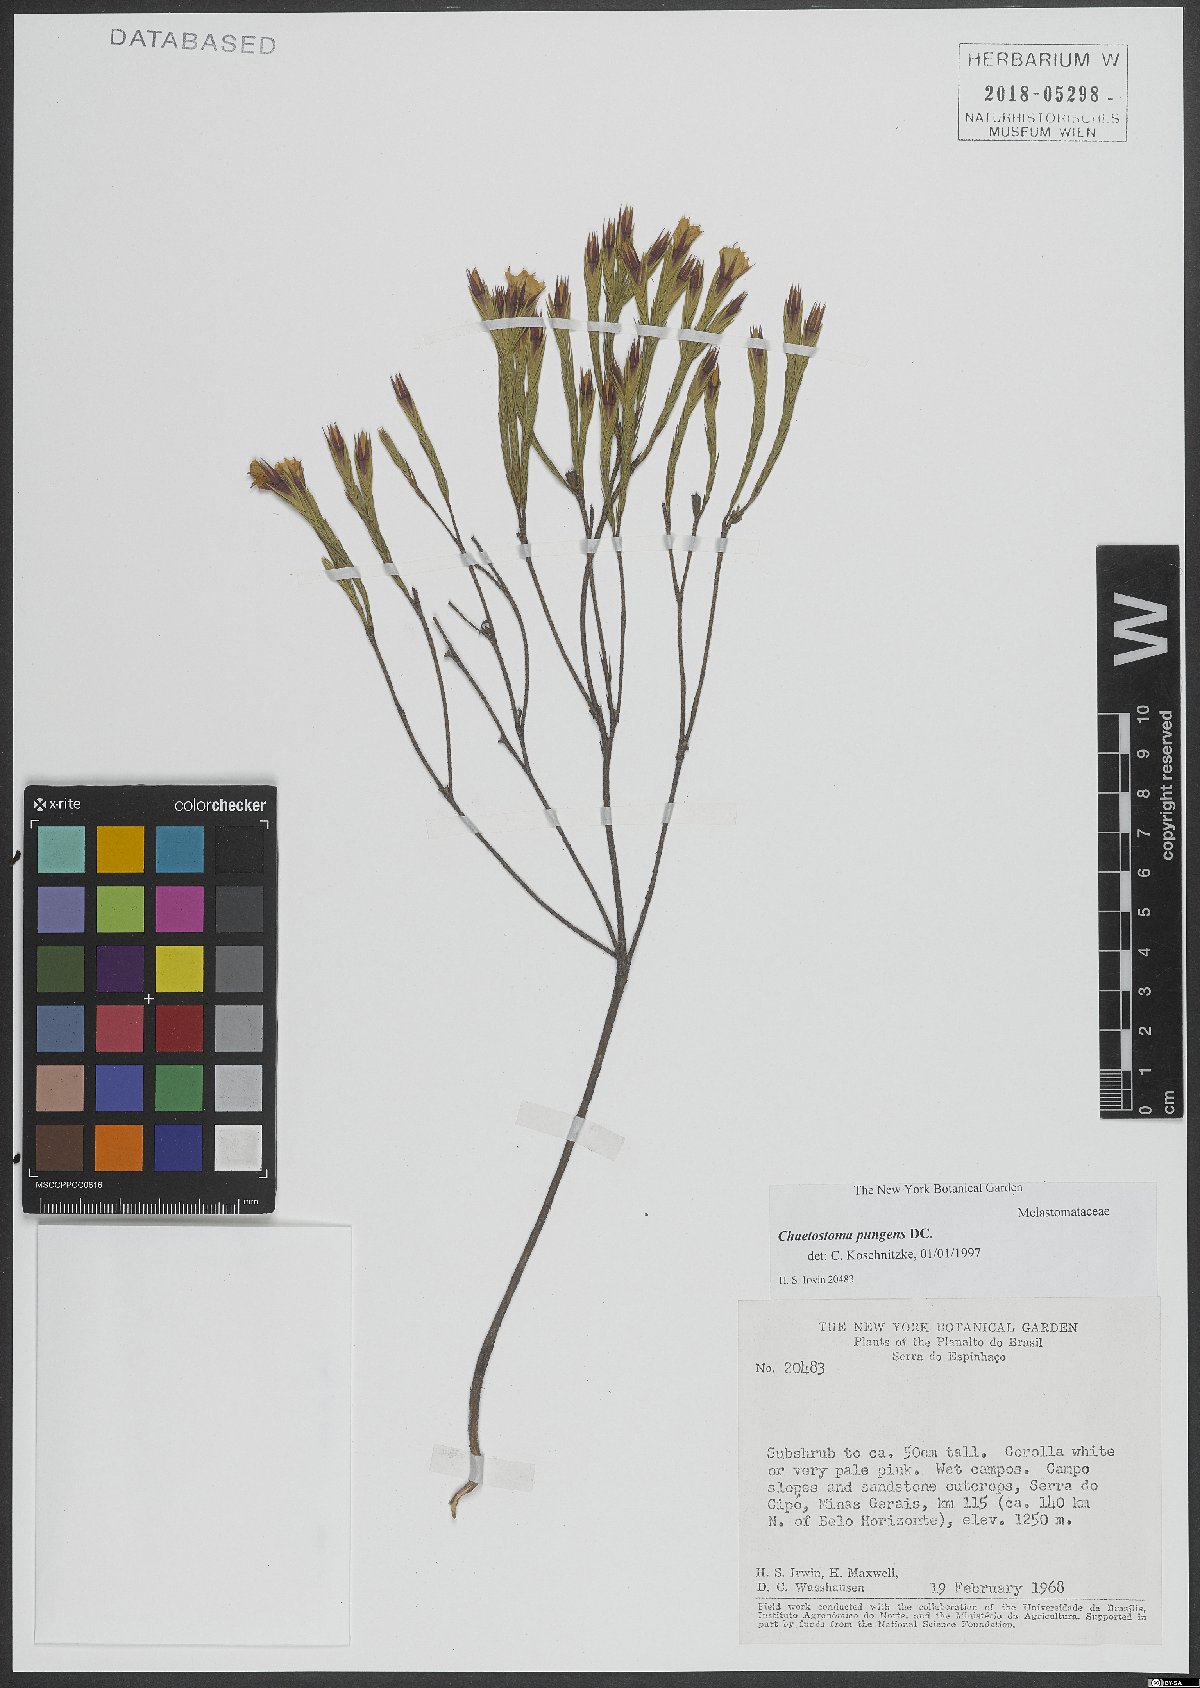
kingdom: Plantae
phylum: Tracheophyta
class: Magnoliopsida
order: Myrtales
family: Melastomataceae
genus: Microlicia
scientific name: Microlicia armata
